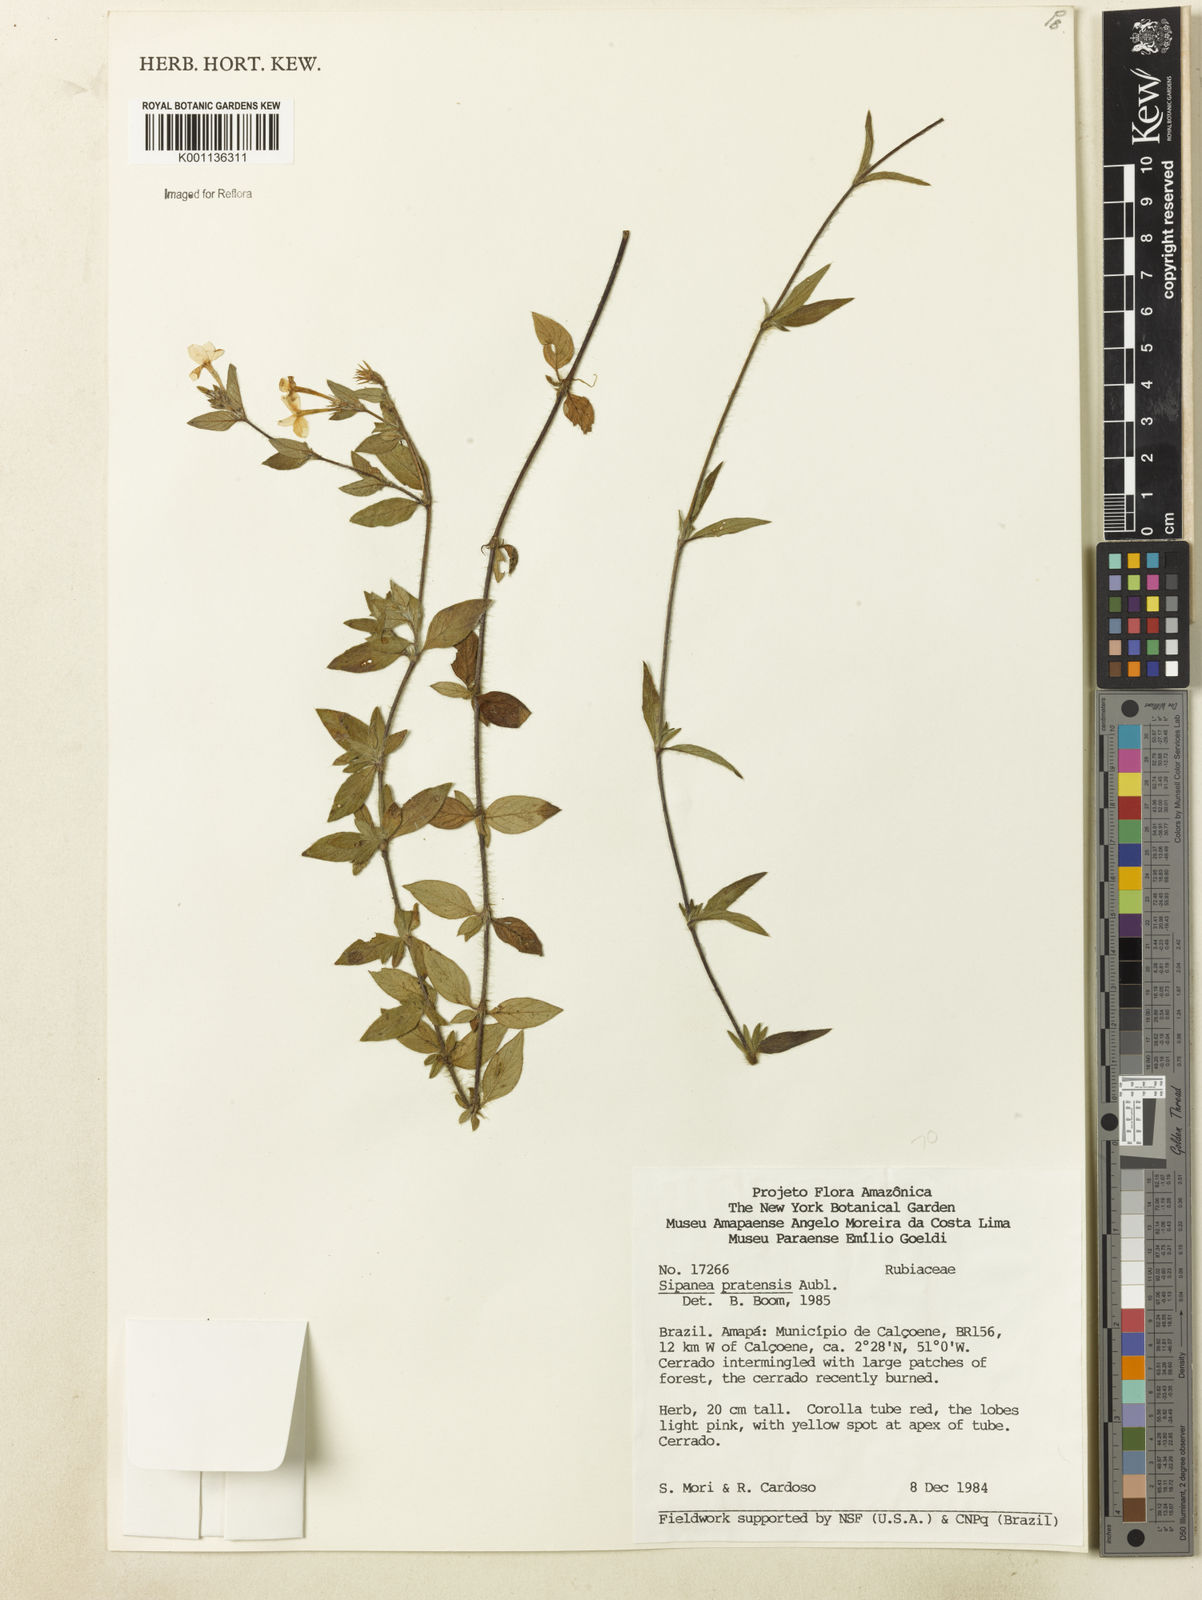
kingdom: Plantae
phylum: Tracheophyta
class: Magnoliopsida
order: Gentianales
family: Rubiaceae
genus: Sipanea
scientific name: Sipanea pratensis
